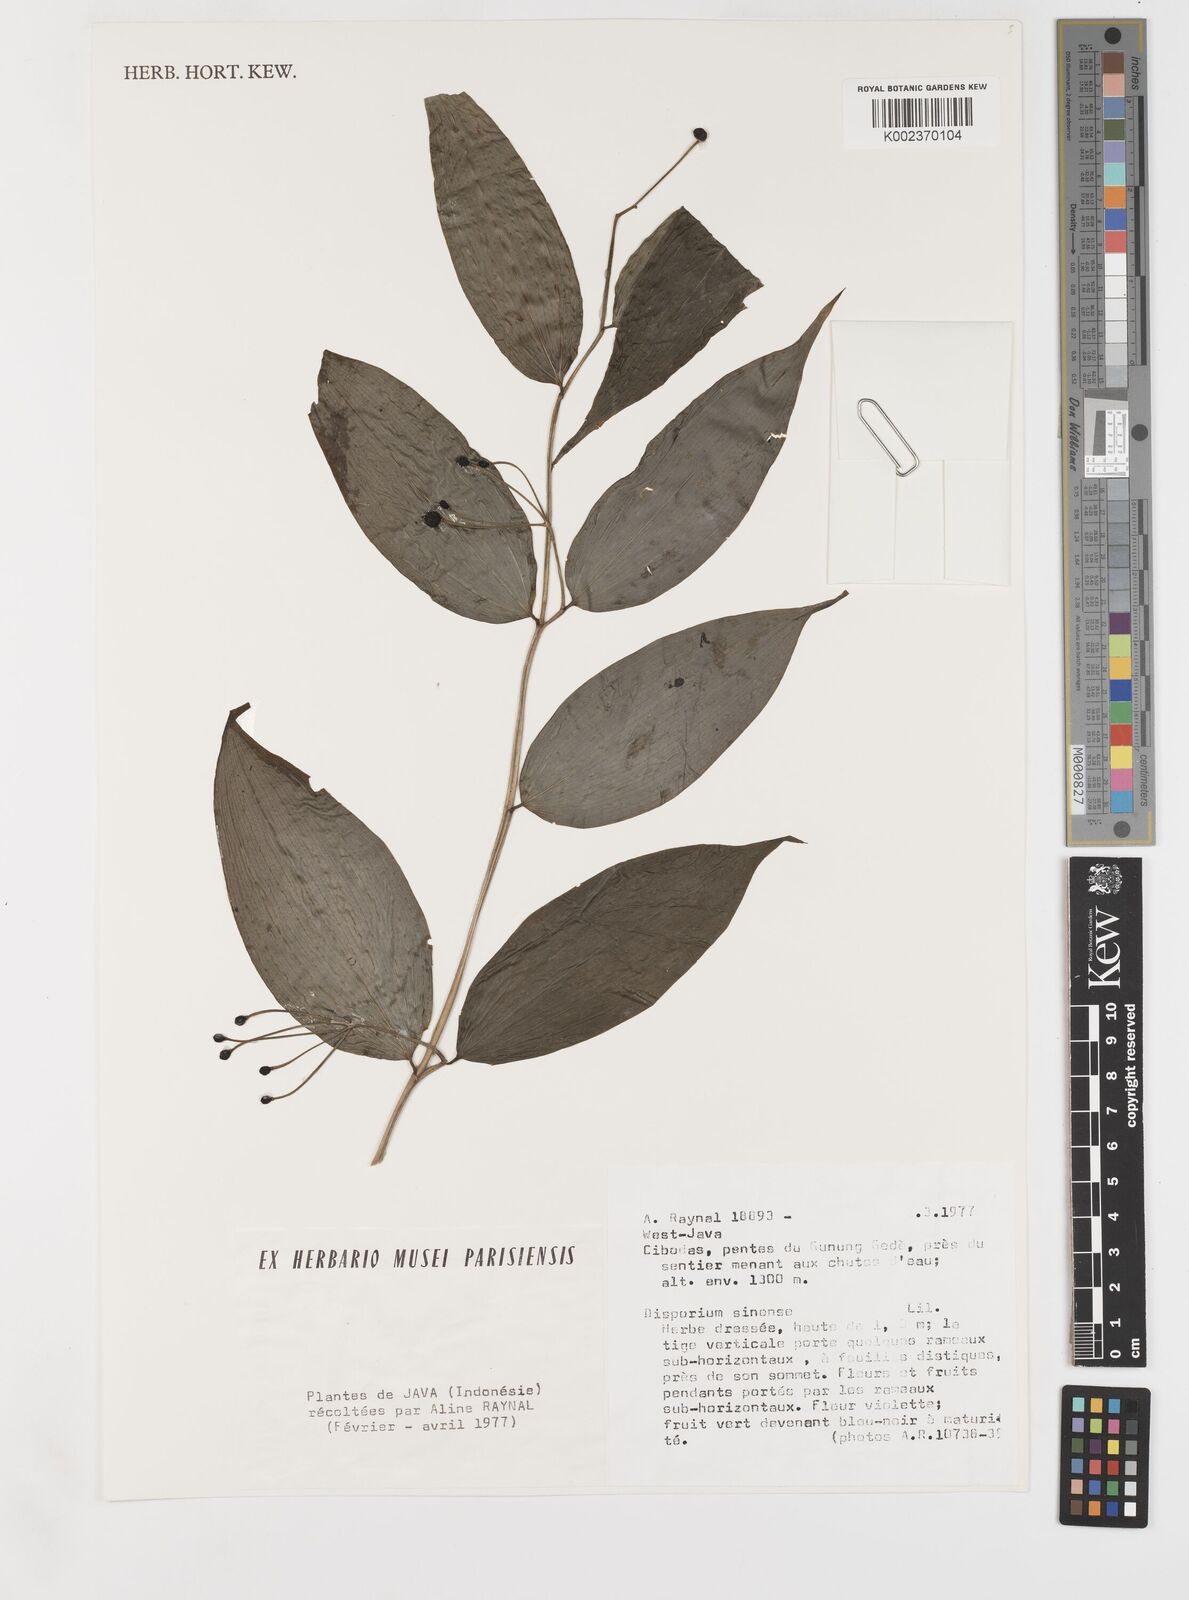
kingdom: Plantae
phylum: Tracheophyta
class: Liliopsida
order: Liliales
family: Colchicaceae
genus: Disporum
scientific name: Disporum
